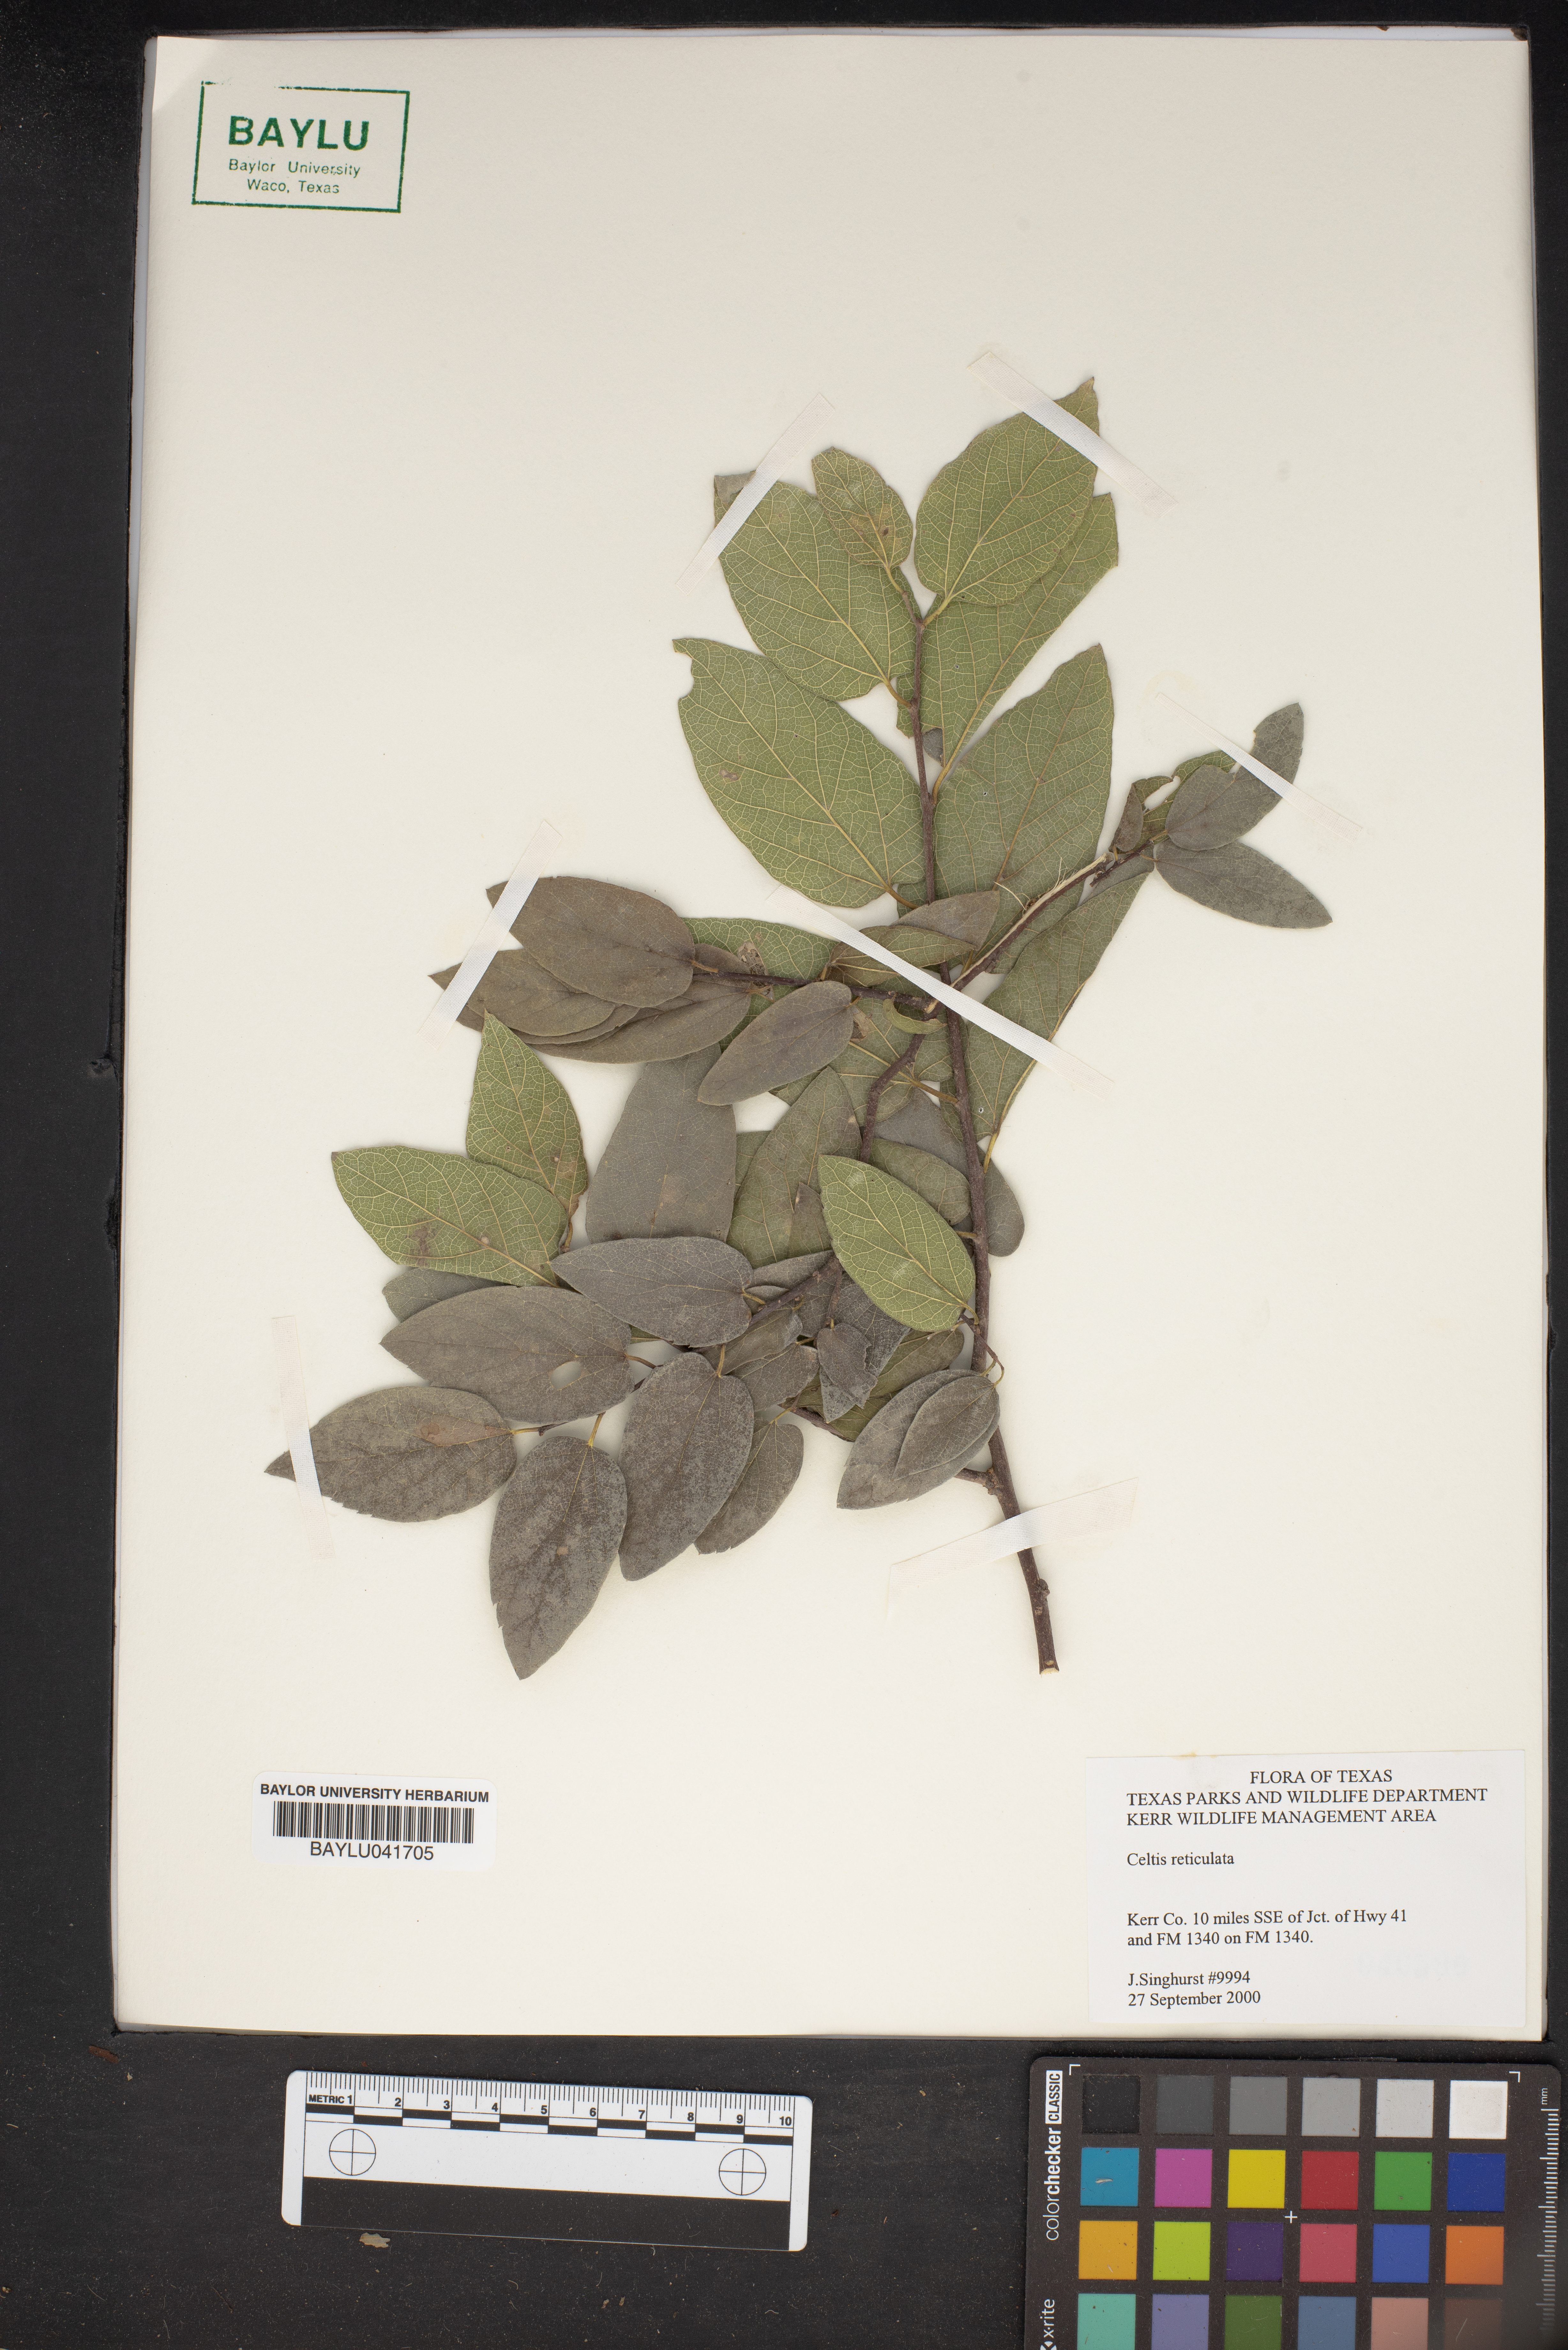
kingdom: Plantae
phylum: Tracheophyta
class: Magnoliopsida
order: Rosales
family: Cannabaceae
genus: Celtis
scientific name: Celtis reticulata
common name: Netleaf hackberry
